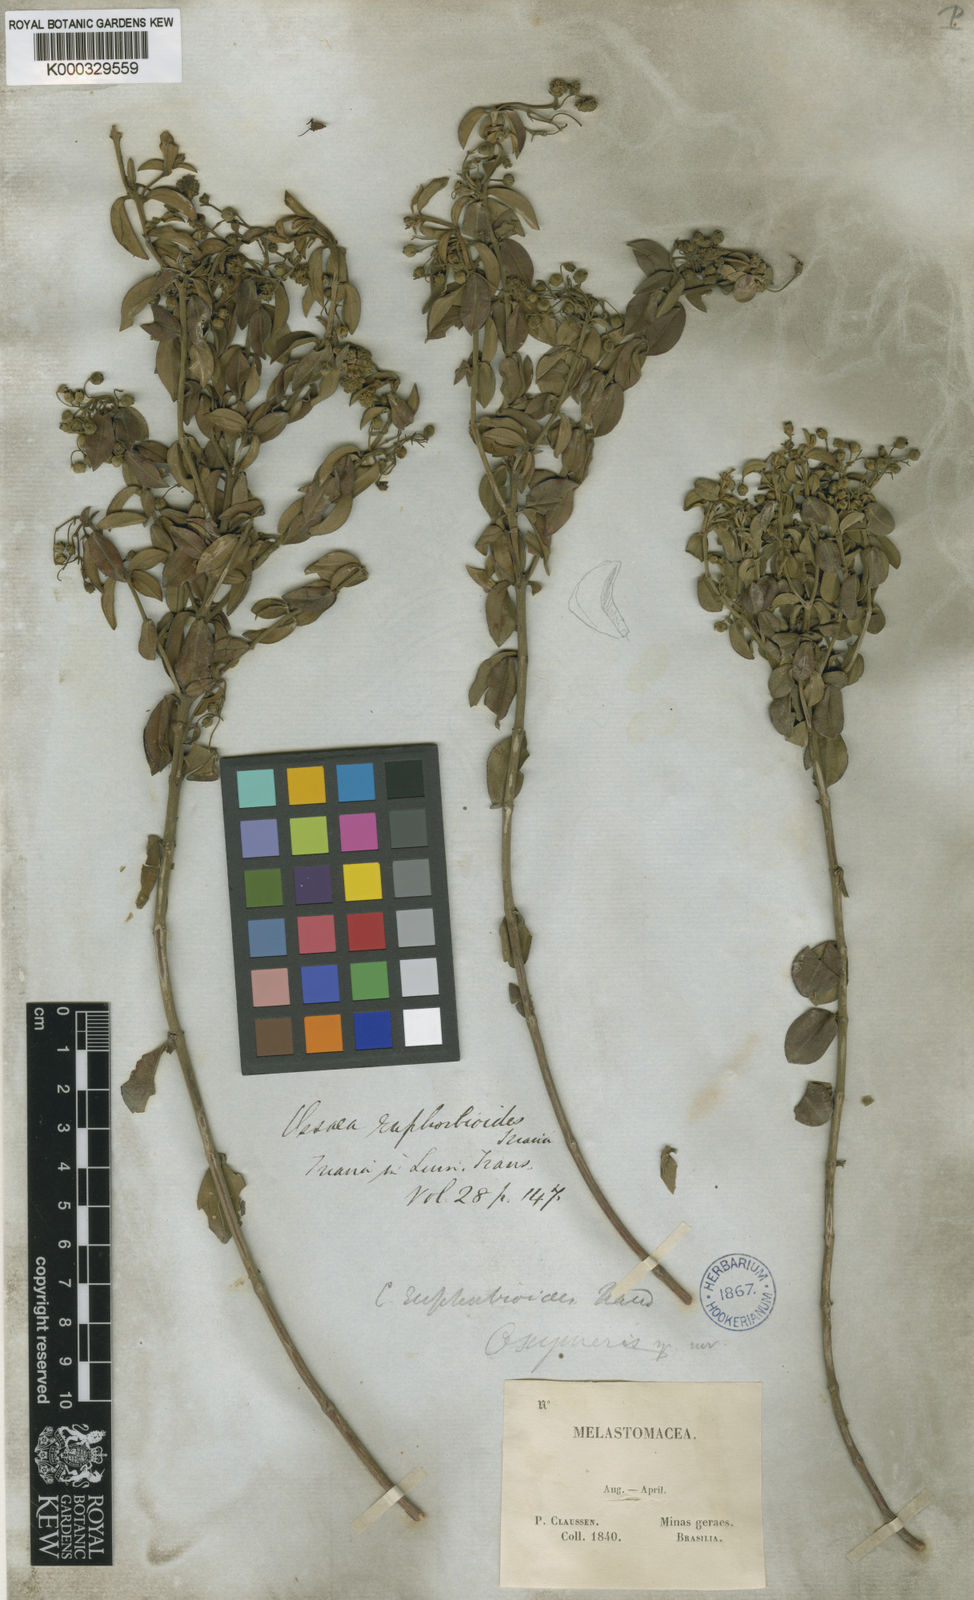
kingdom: Plantae
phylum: Tracheophyta
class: Magnoliopsida
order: Myrtales
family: Melastomataceae
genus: Miconia
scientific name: Miconia euphorbioides
